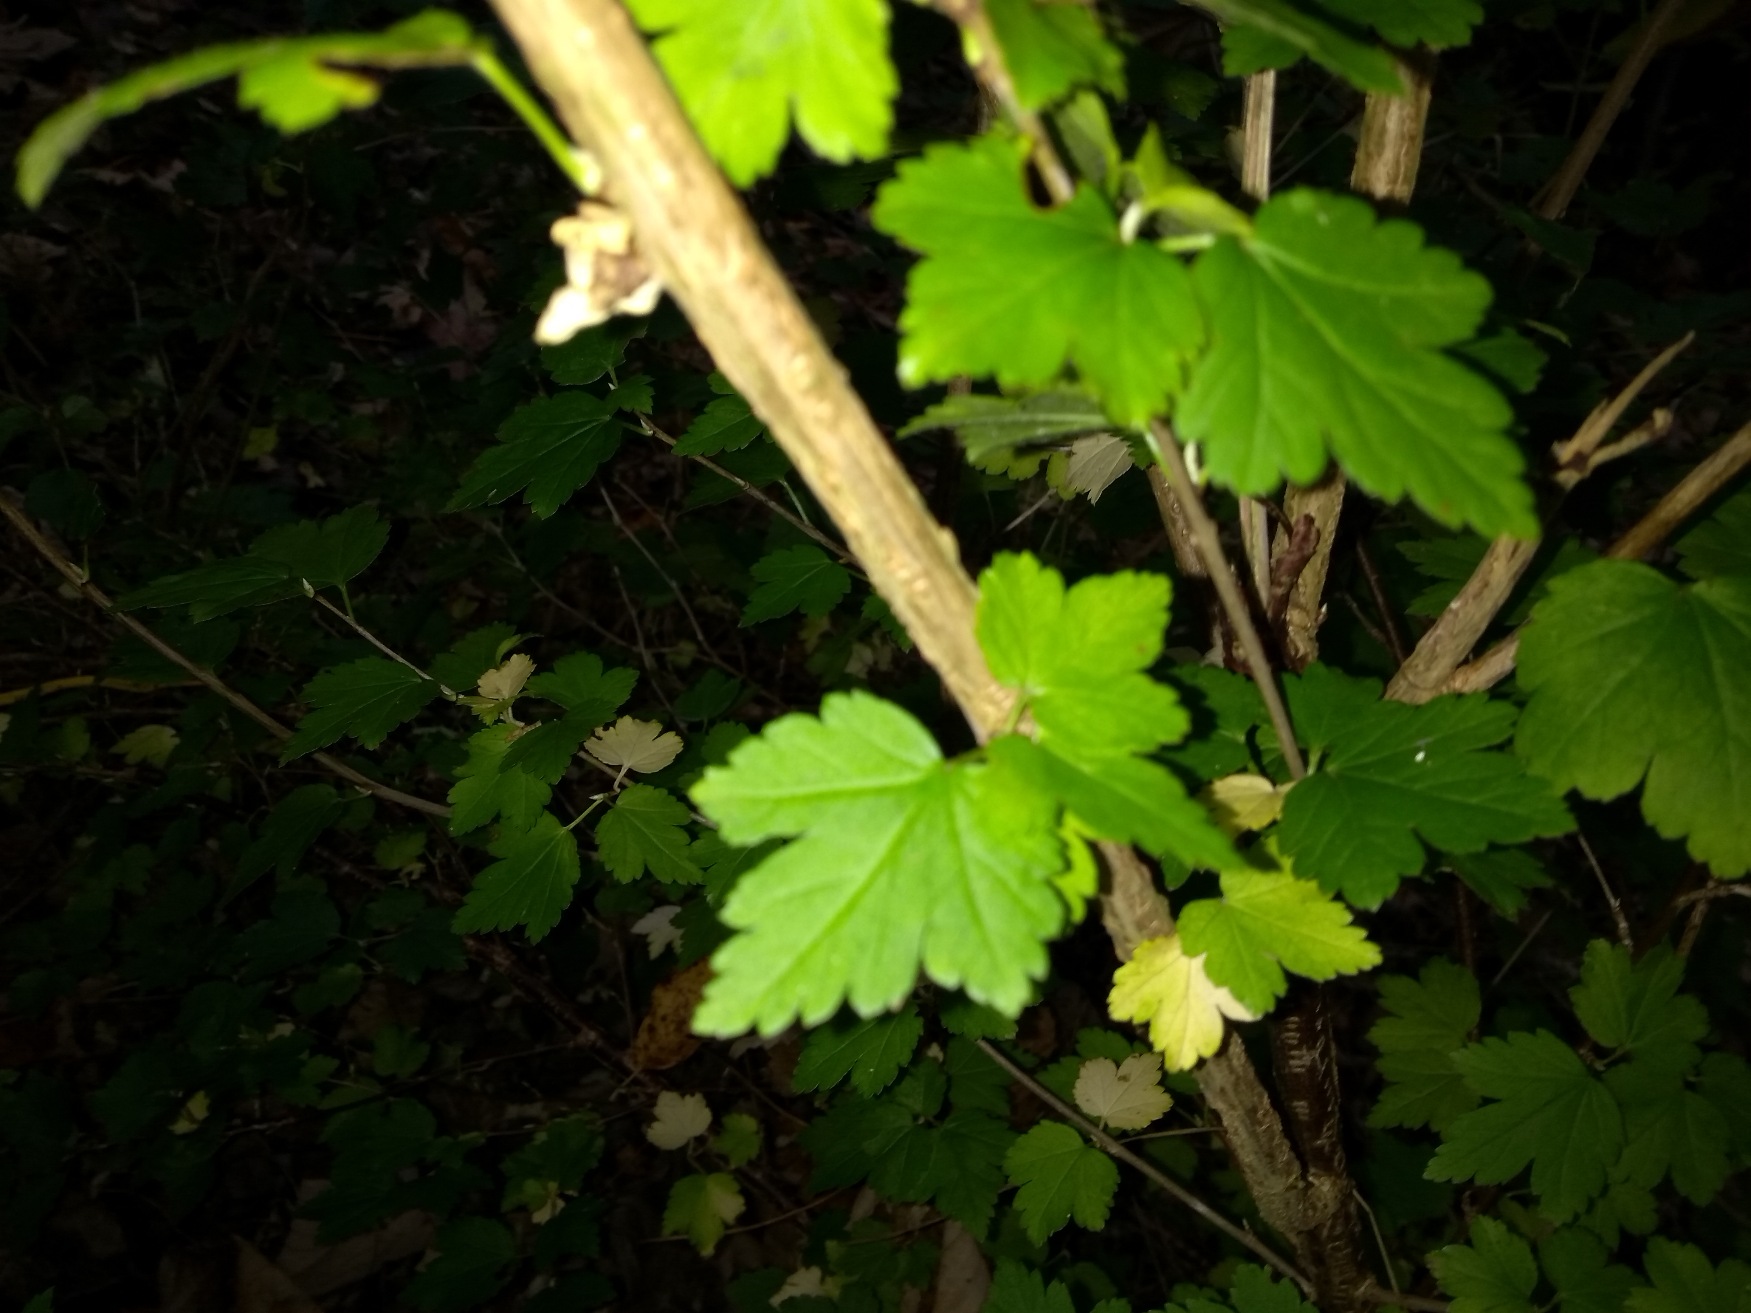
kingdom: Plantae
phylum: Tracheophyta
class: Magnoliopsida
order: Saxifragales
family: Grossulariaceae
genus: Ribes
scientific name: Ribes alpinum
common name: Fjeld-ribs
